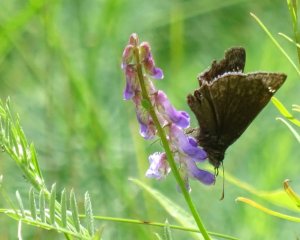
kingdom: Animalia
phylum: Arthropoda
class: Insecta
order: Lepidoptera
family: Hesperiidae
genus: Gesta
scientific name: Gesta
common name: Wild Indigo Duskywing
